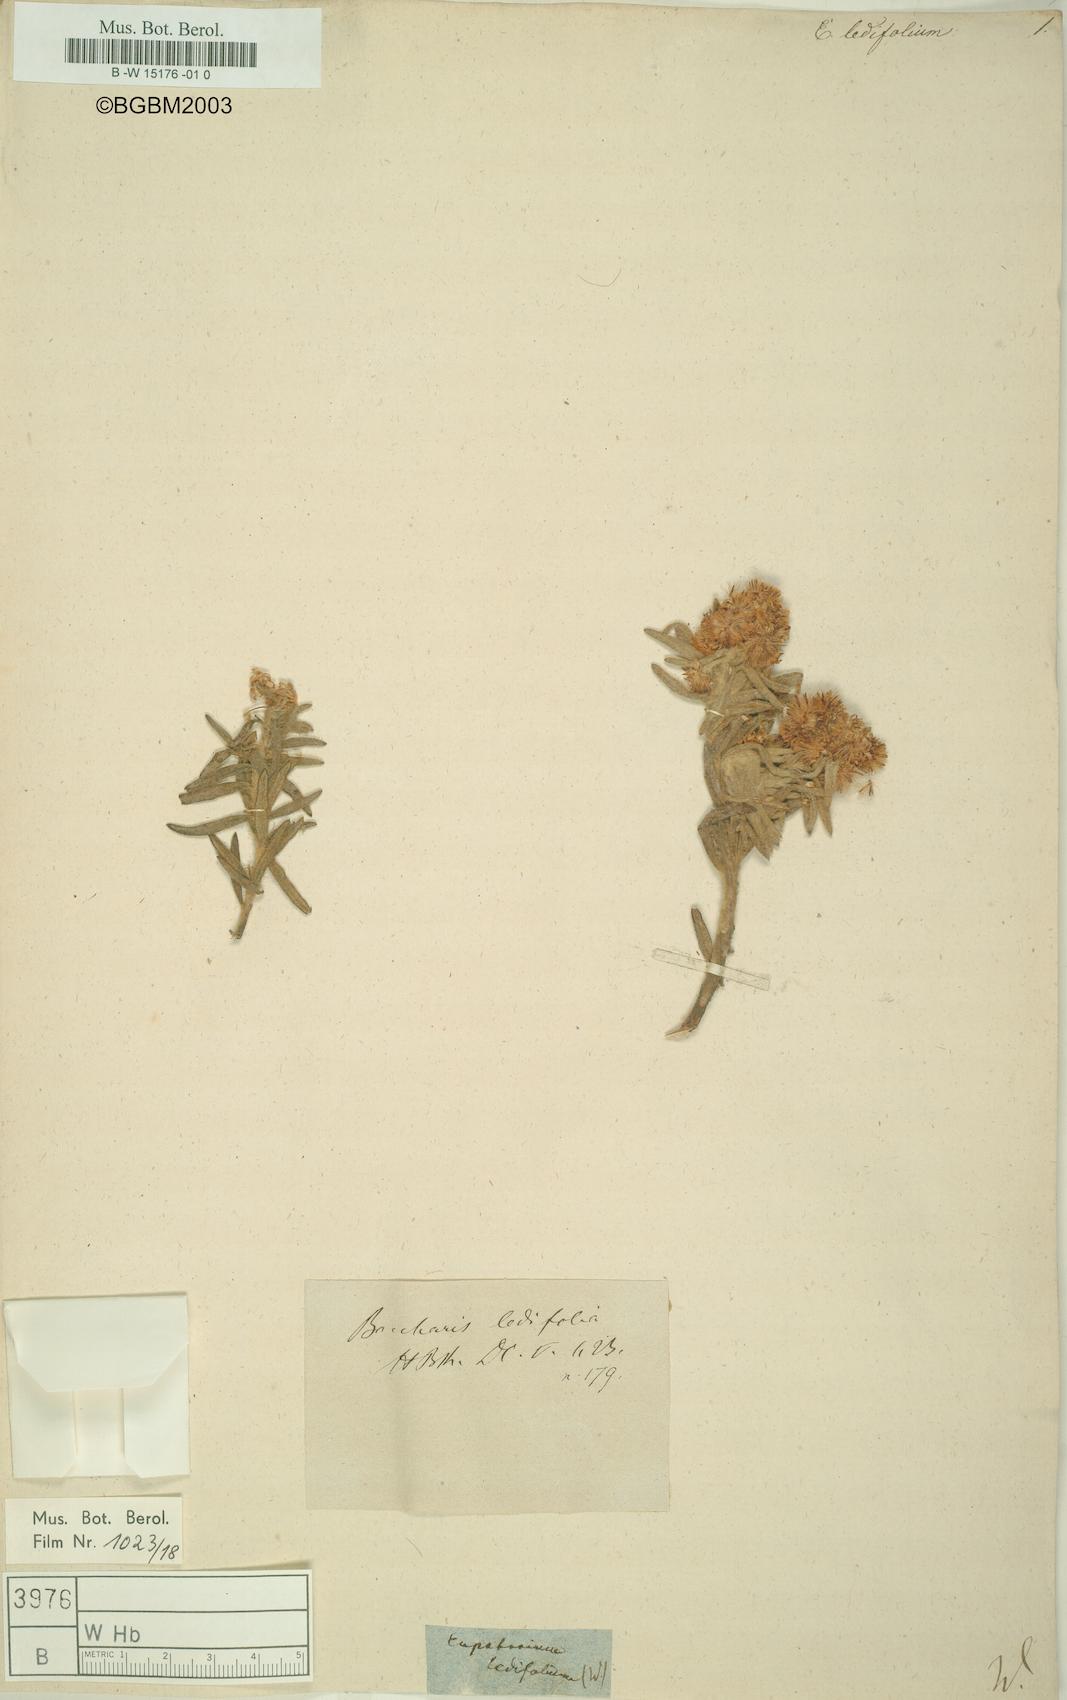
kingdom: Plantae
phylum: Tracheophyta
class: Magnoliopsida
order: Asterales
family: Asteraceae
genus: Eupatorium
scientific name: Eupatorium
